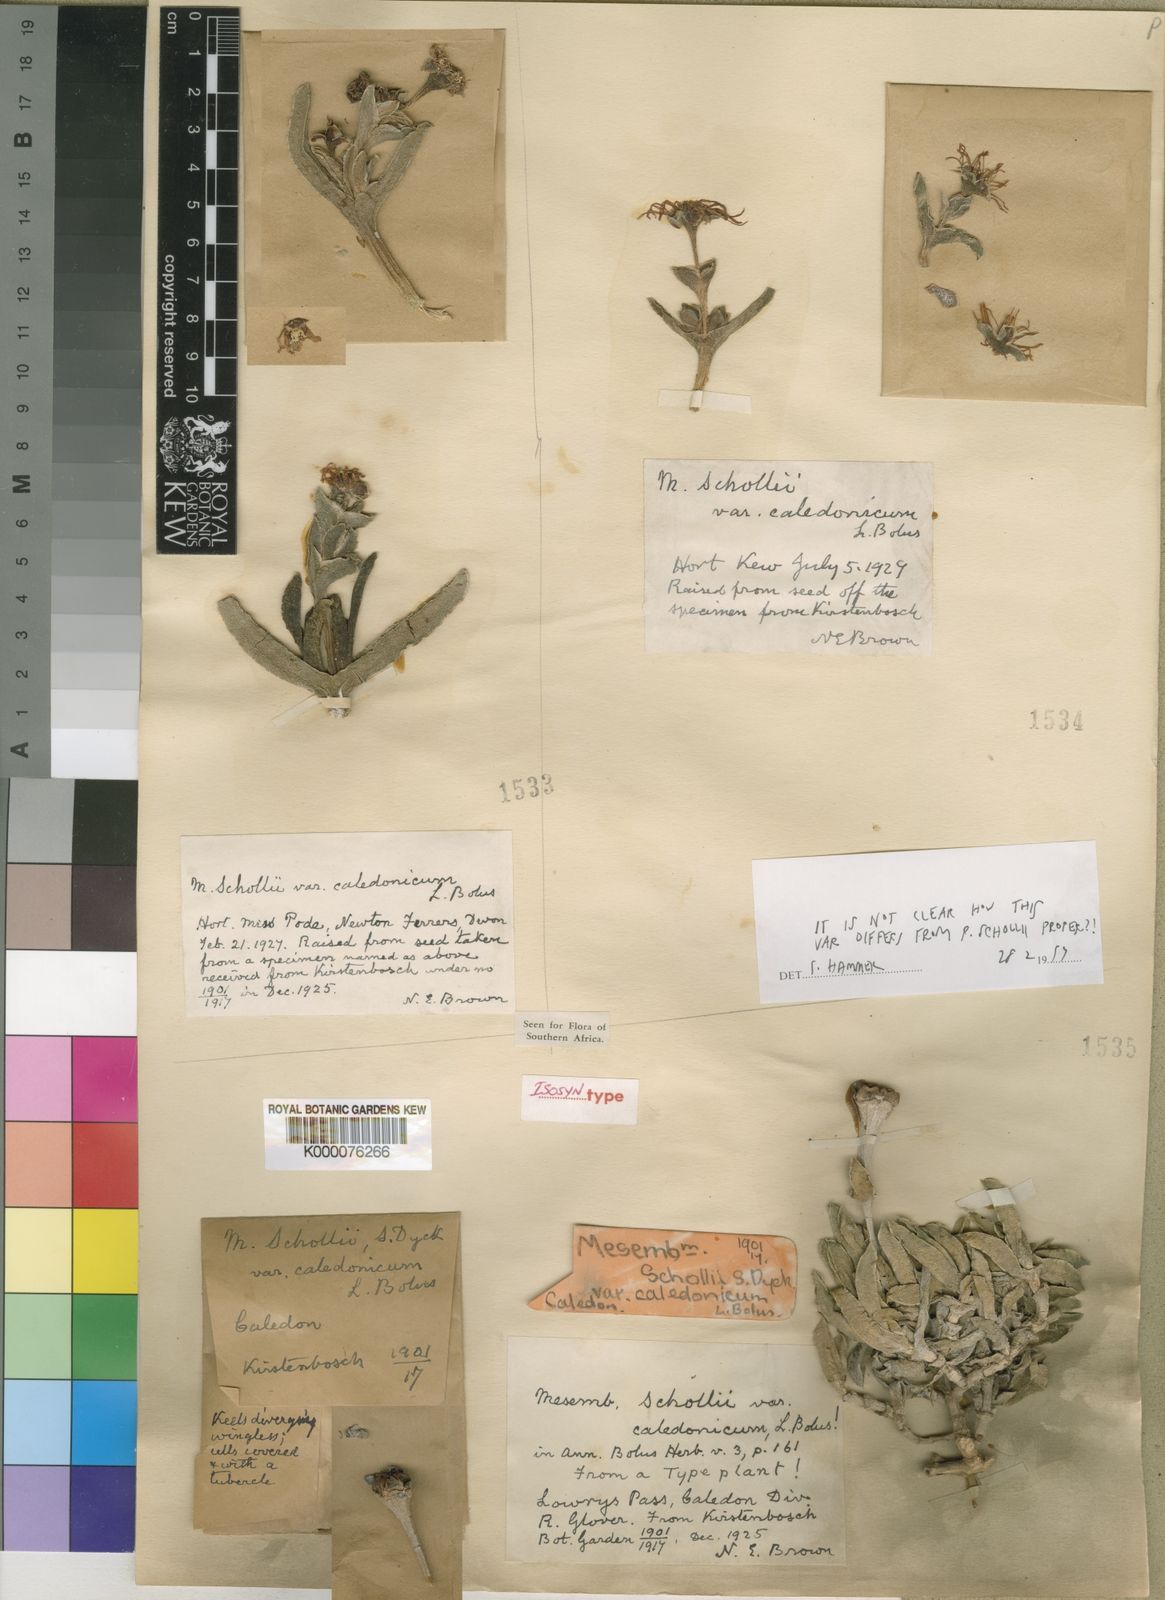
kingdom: Plantae
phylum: Tracheophyta
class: Magnoliopsida
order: Caryophyllales
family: Aizoaceae
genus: Ruschia
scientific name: Ruschia schollii
